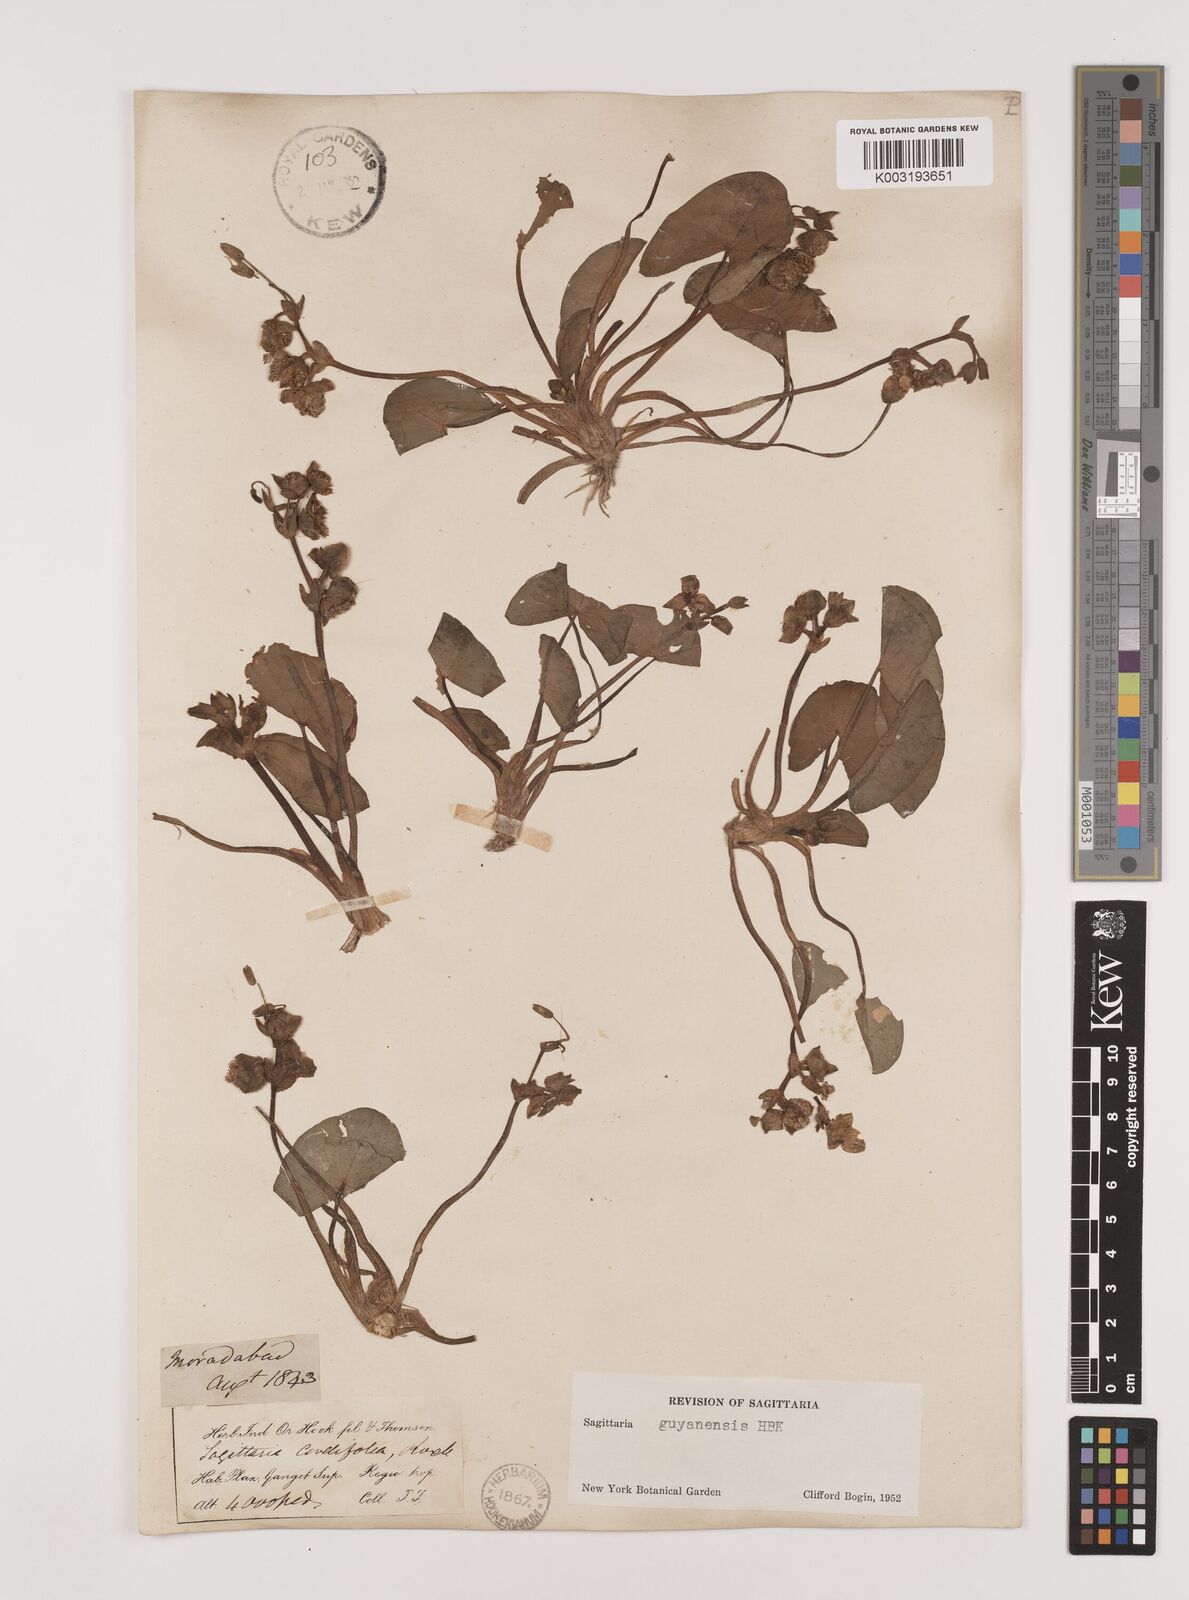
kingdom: Plantae
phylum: Tracheophyta
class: Liliopsida
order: Alismatales
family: Alismataceae
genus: Sagittaria
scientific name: Sagittaria guayanensis
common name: Guyanese arrowhead
